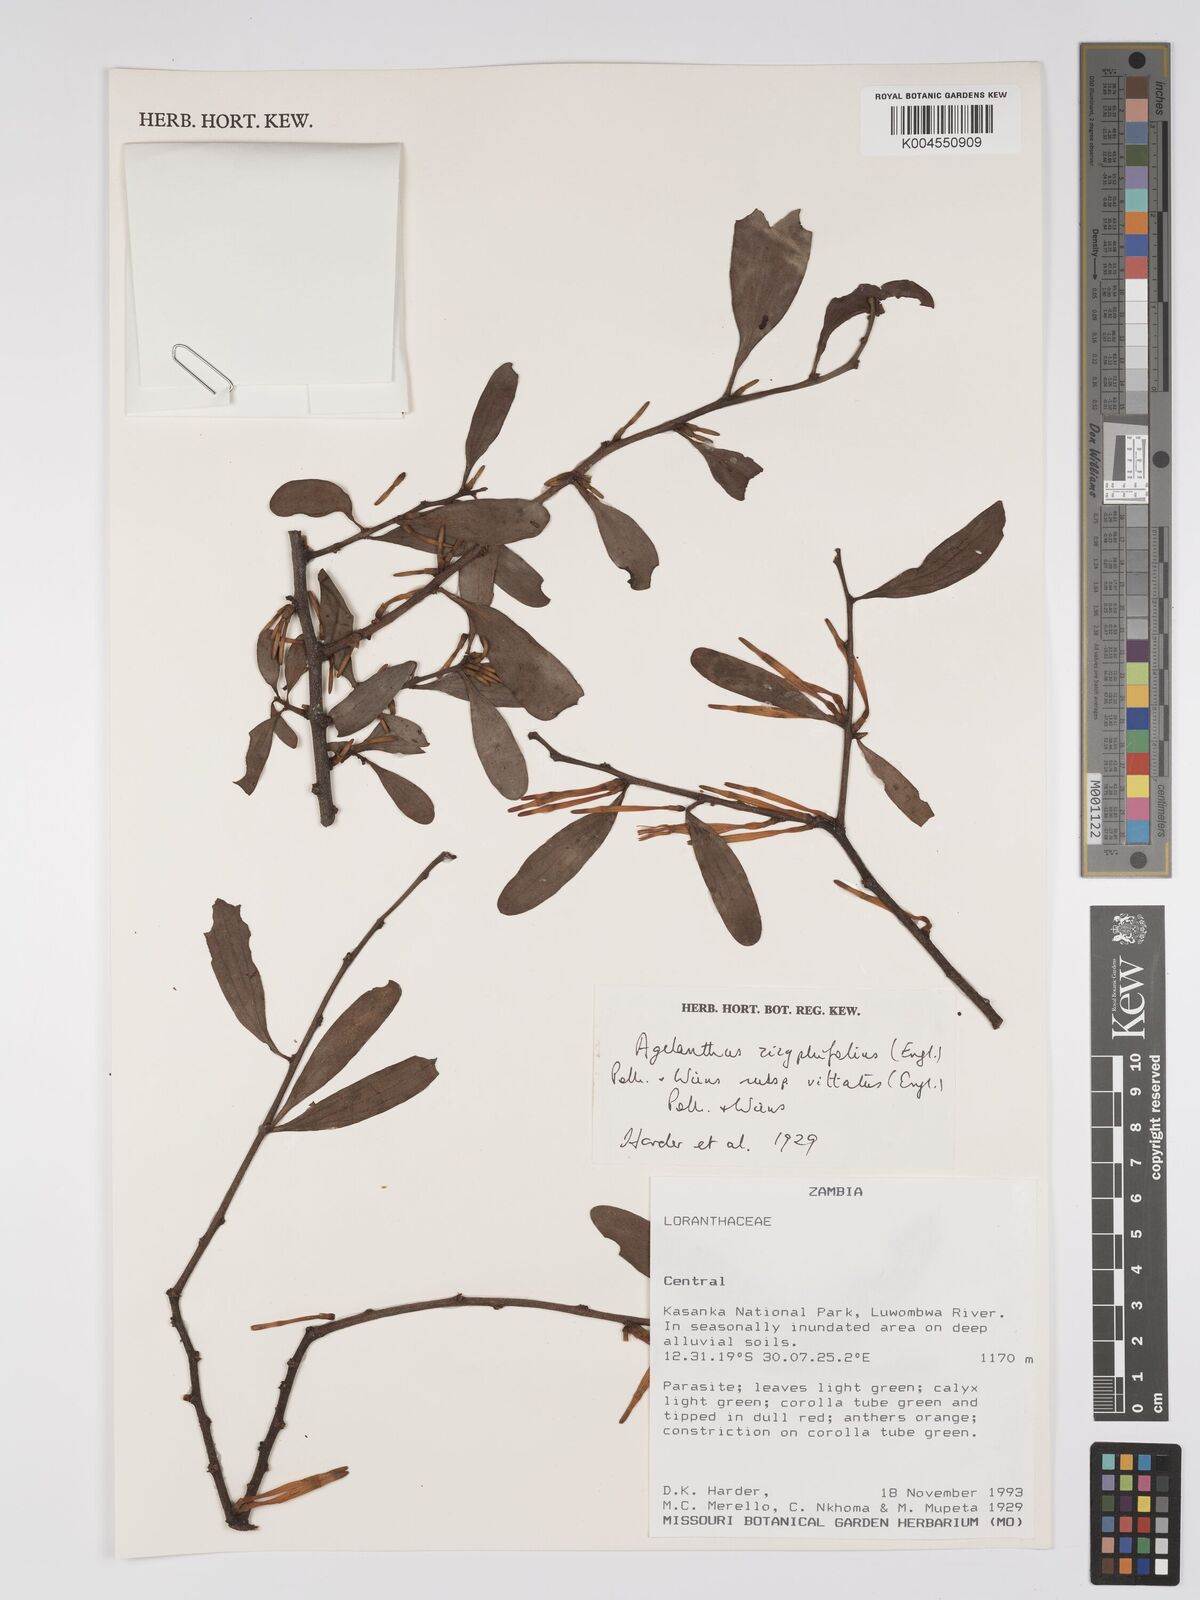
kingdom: Plantae
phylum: Tracheophyta
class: Magnoliopsida
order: Santalales
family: Loranthaceae
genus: Agelanthus
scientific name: Agelanthus zizyphifolius
